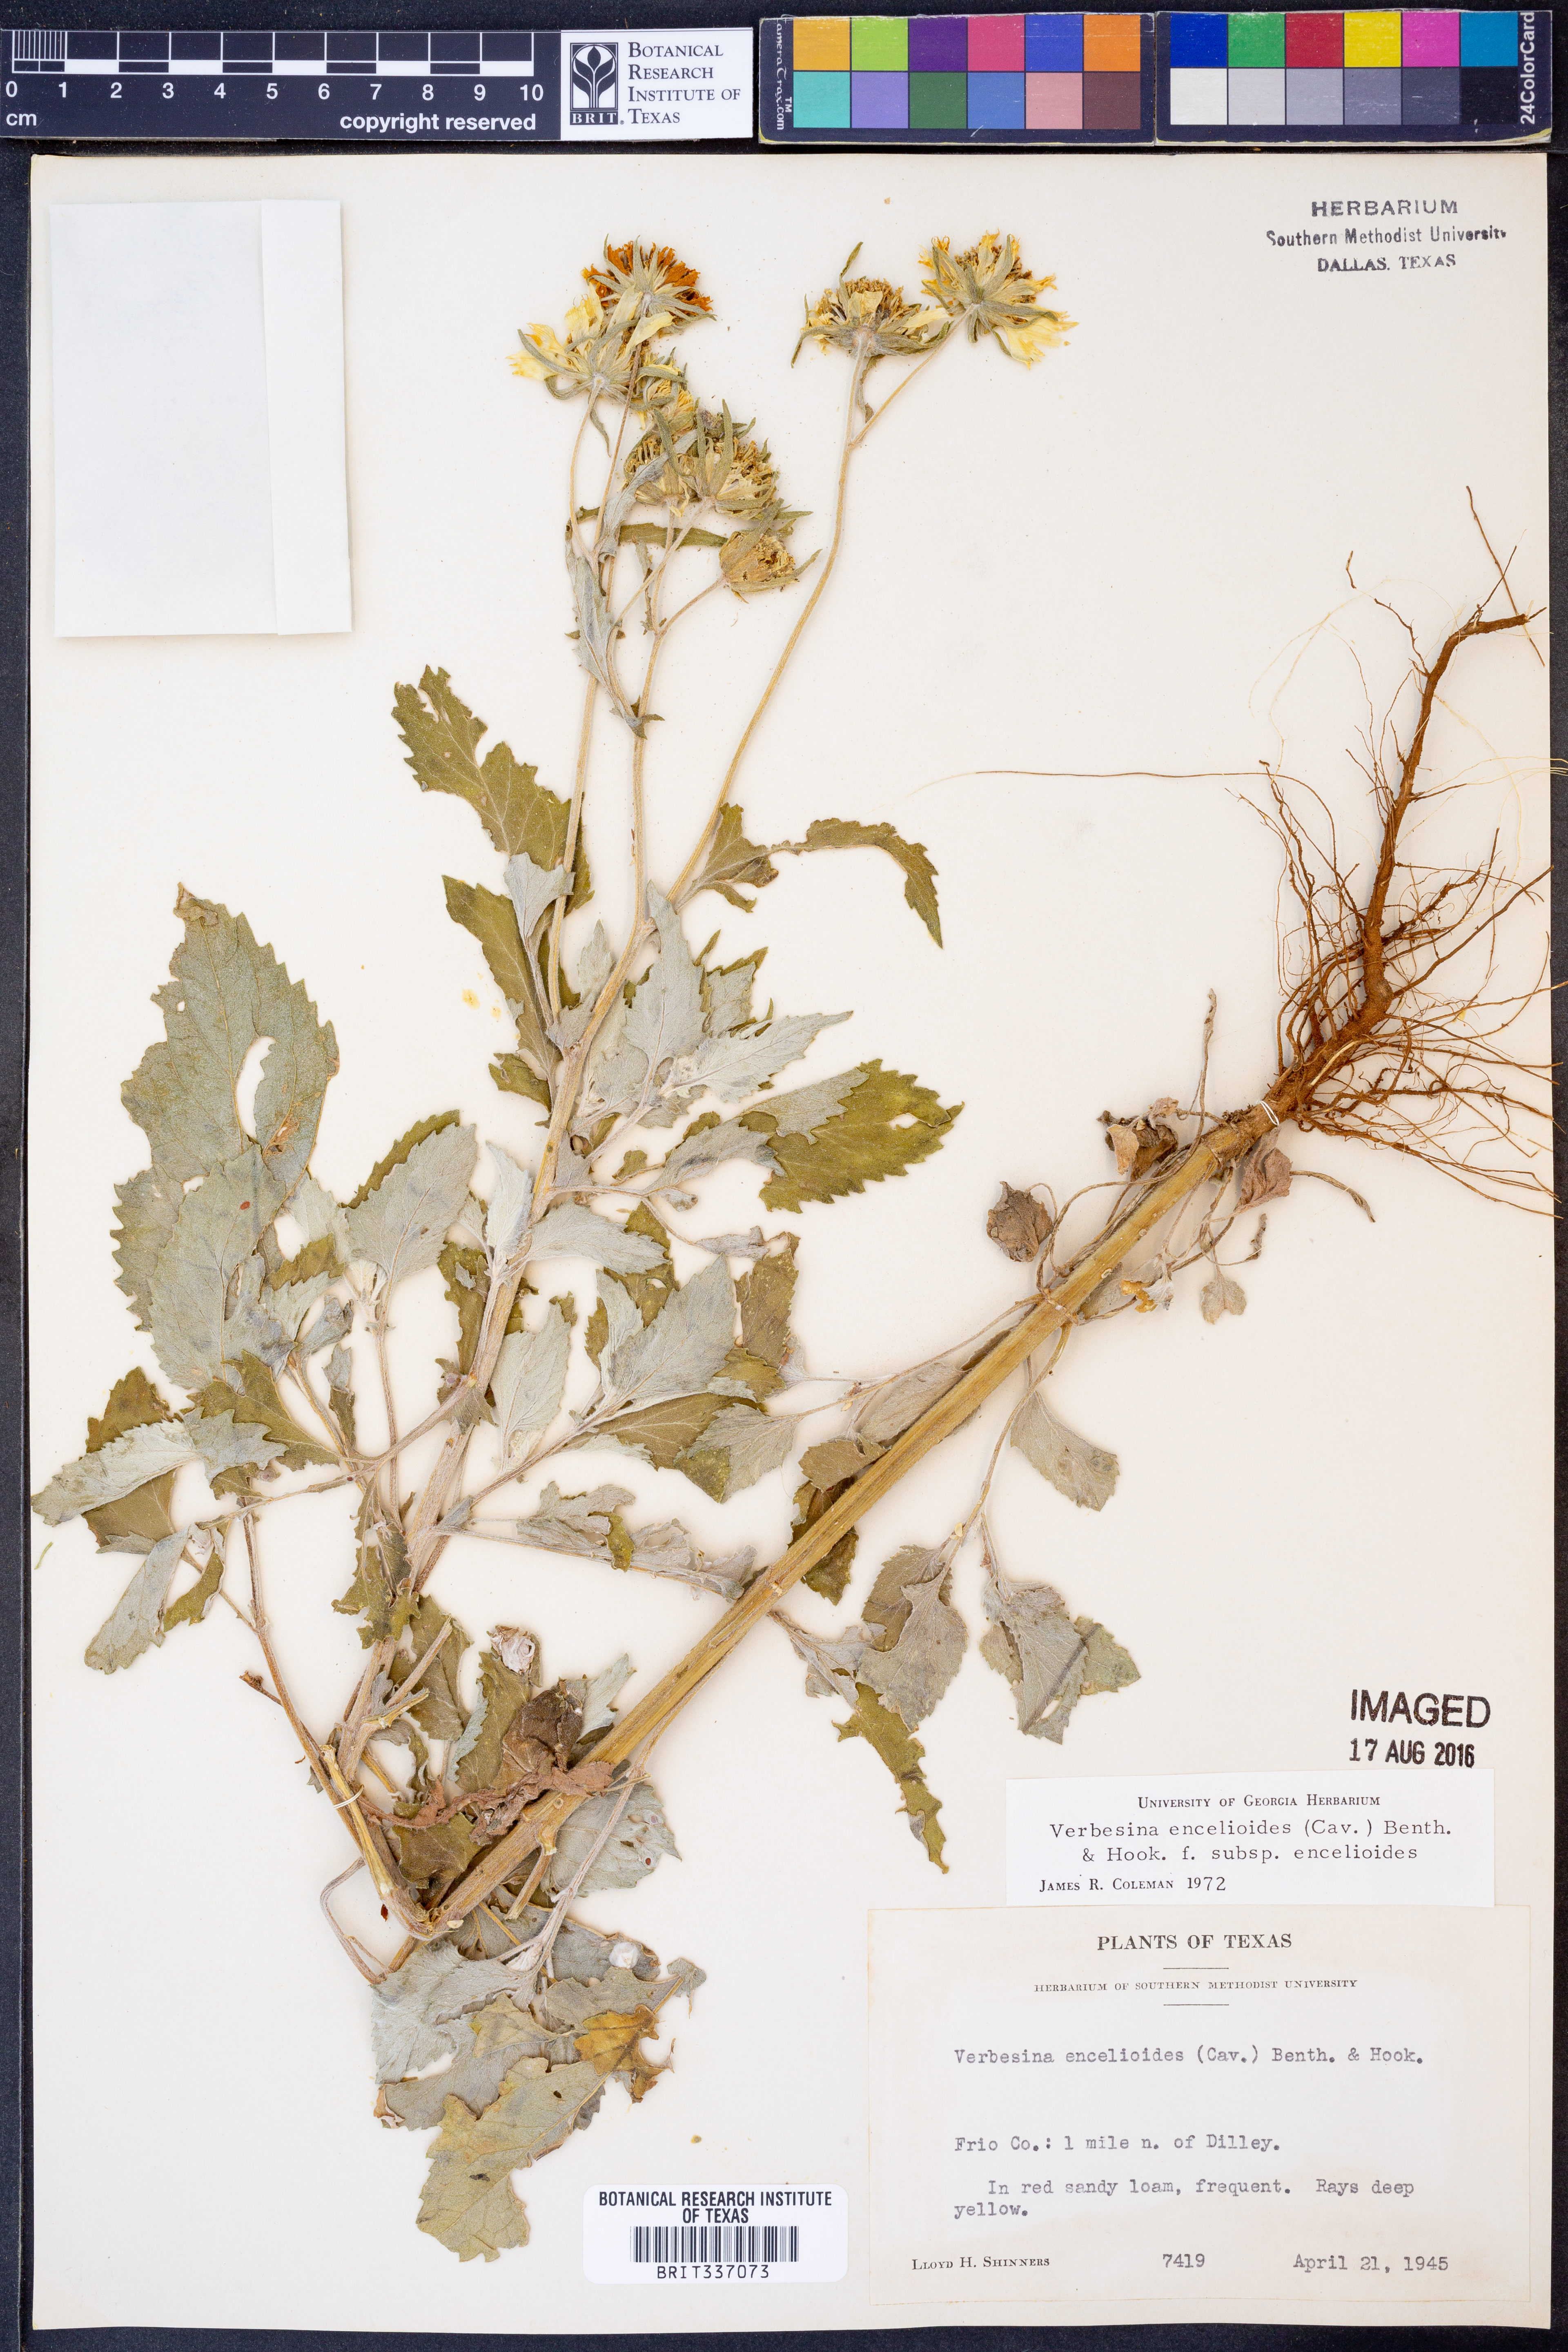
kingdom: Plantae
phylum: Tracheophyta
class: Magnoliopsida
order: Asterales
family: Asteraceae
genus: Verbesina
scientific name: Verbesina encelioides
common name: Golden crownbeard
